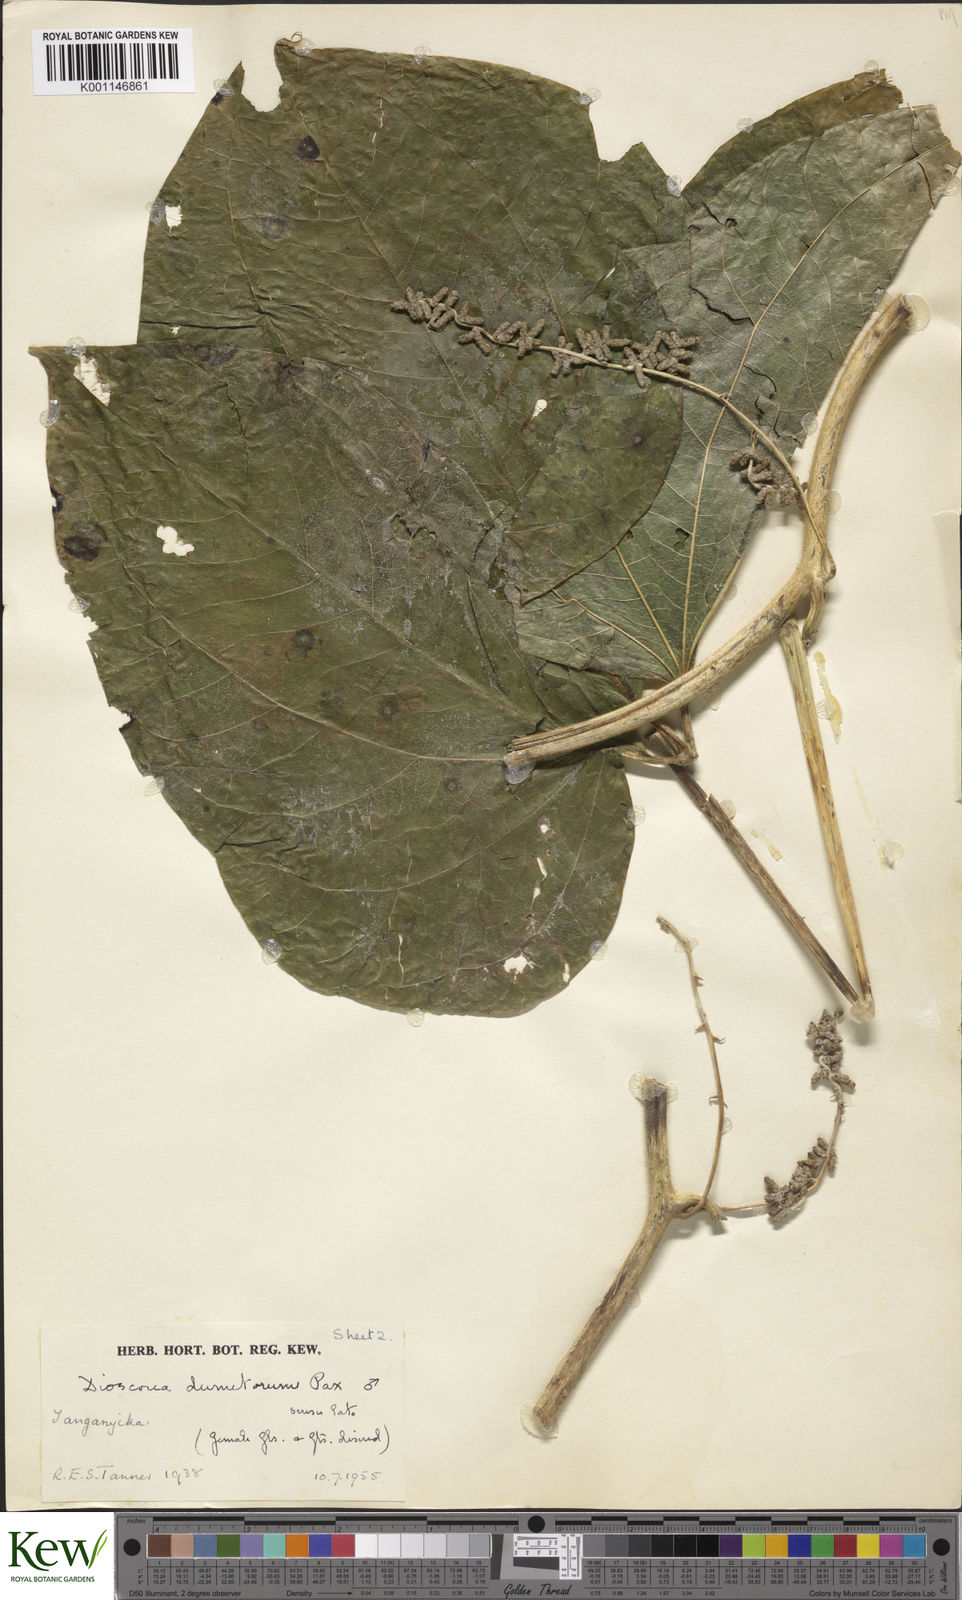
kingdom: Plantae
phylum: Tracheophyta
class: Liliopsida
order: Dioscoreales
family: Dioscoreaceae
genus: Dioscorea
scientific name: Dioscorea dumetorum
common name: African bitter yam
